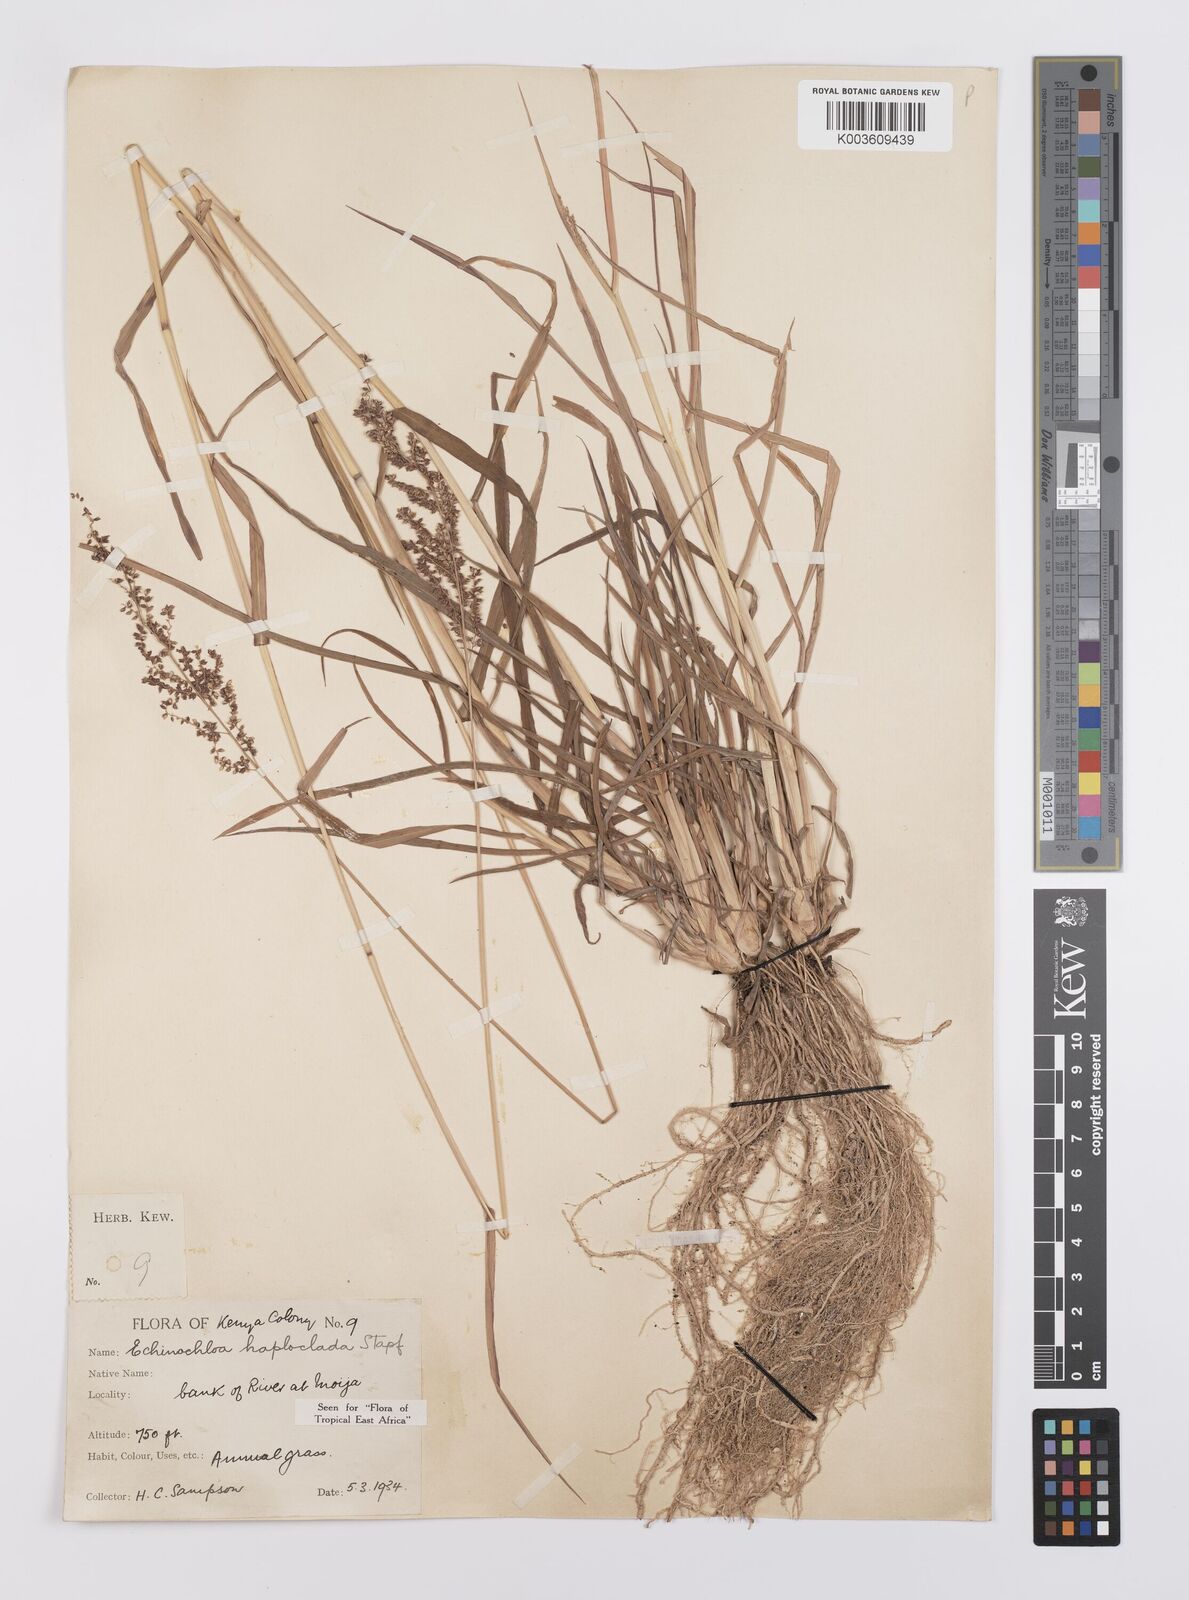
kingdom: Plantae
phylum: Tracheophyta
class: Liliopsida
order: Poales
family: Poaceae
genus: Echinochloa
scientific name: Echinochloa haploclada
